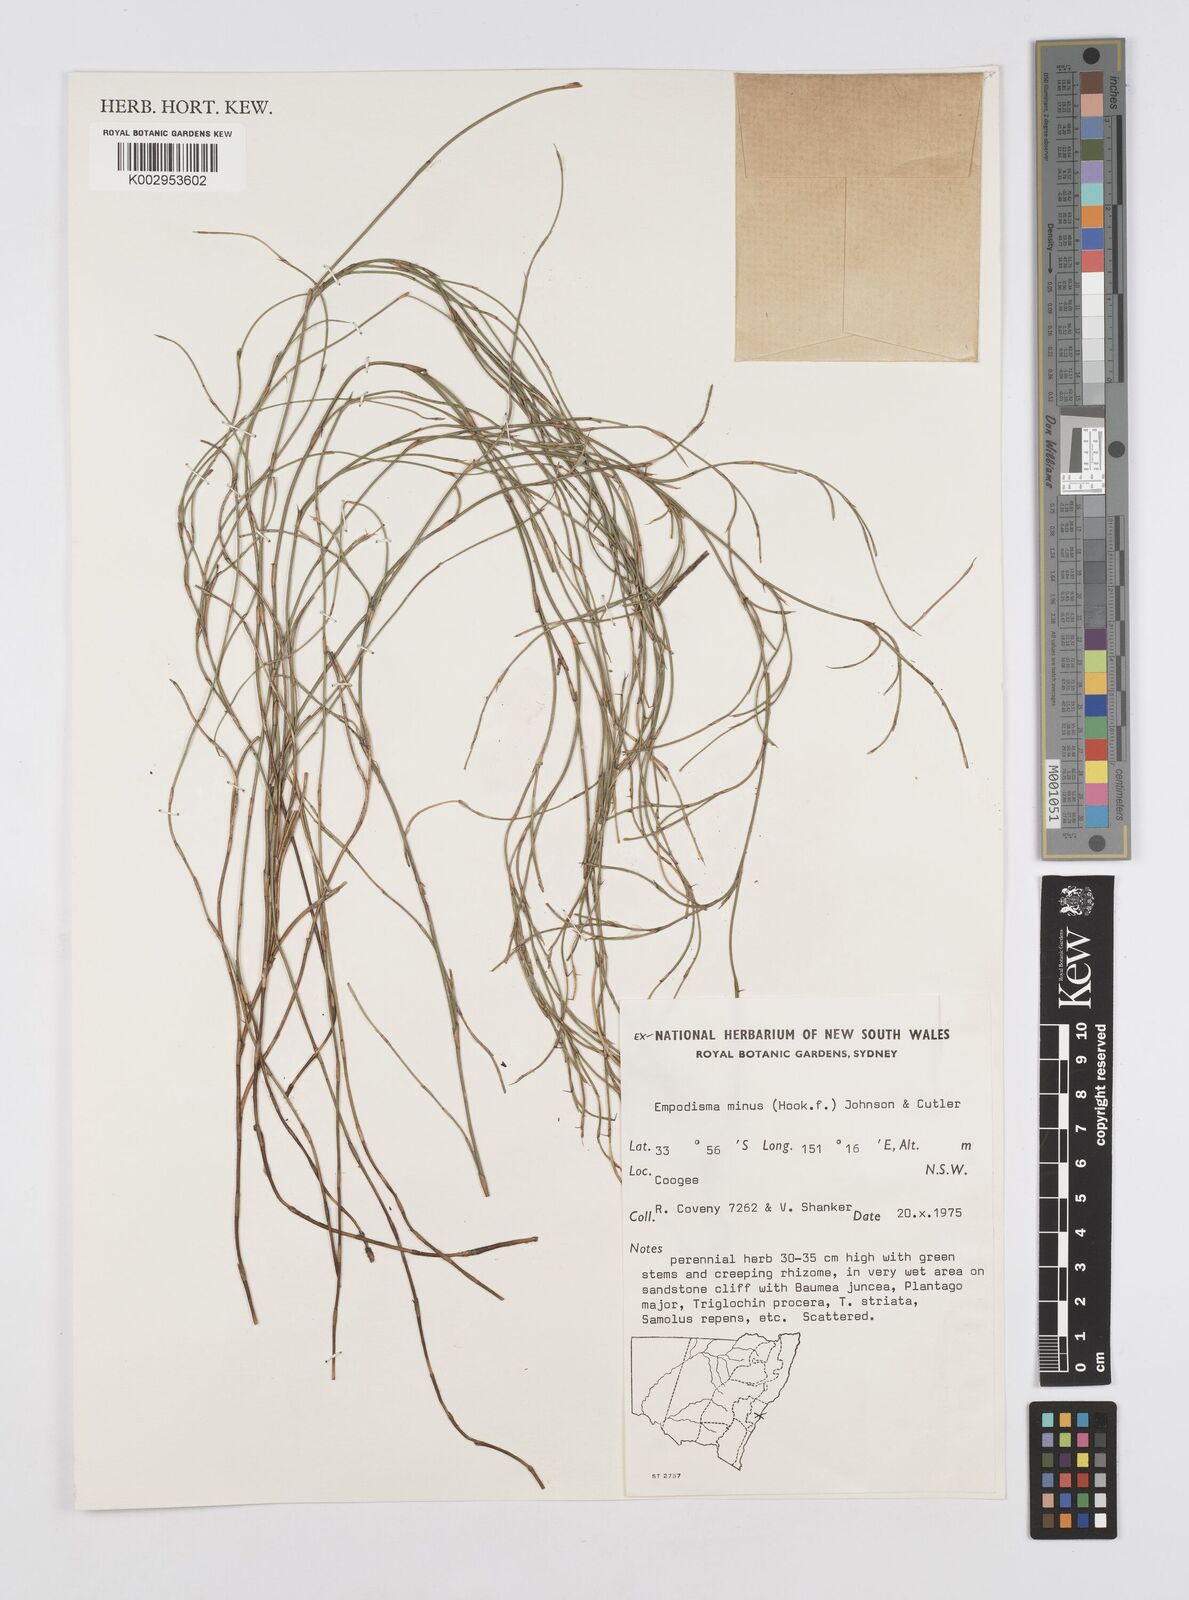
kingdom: Plantae
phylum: Tracheophyta
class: Liliopsida
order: Poales
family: Restionaceae
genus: Empodisma
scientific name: Empodisma minus
